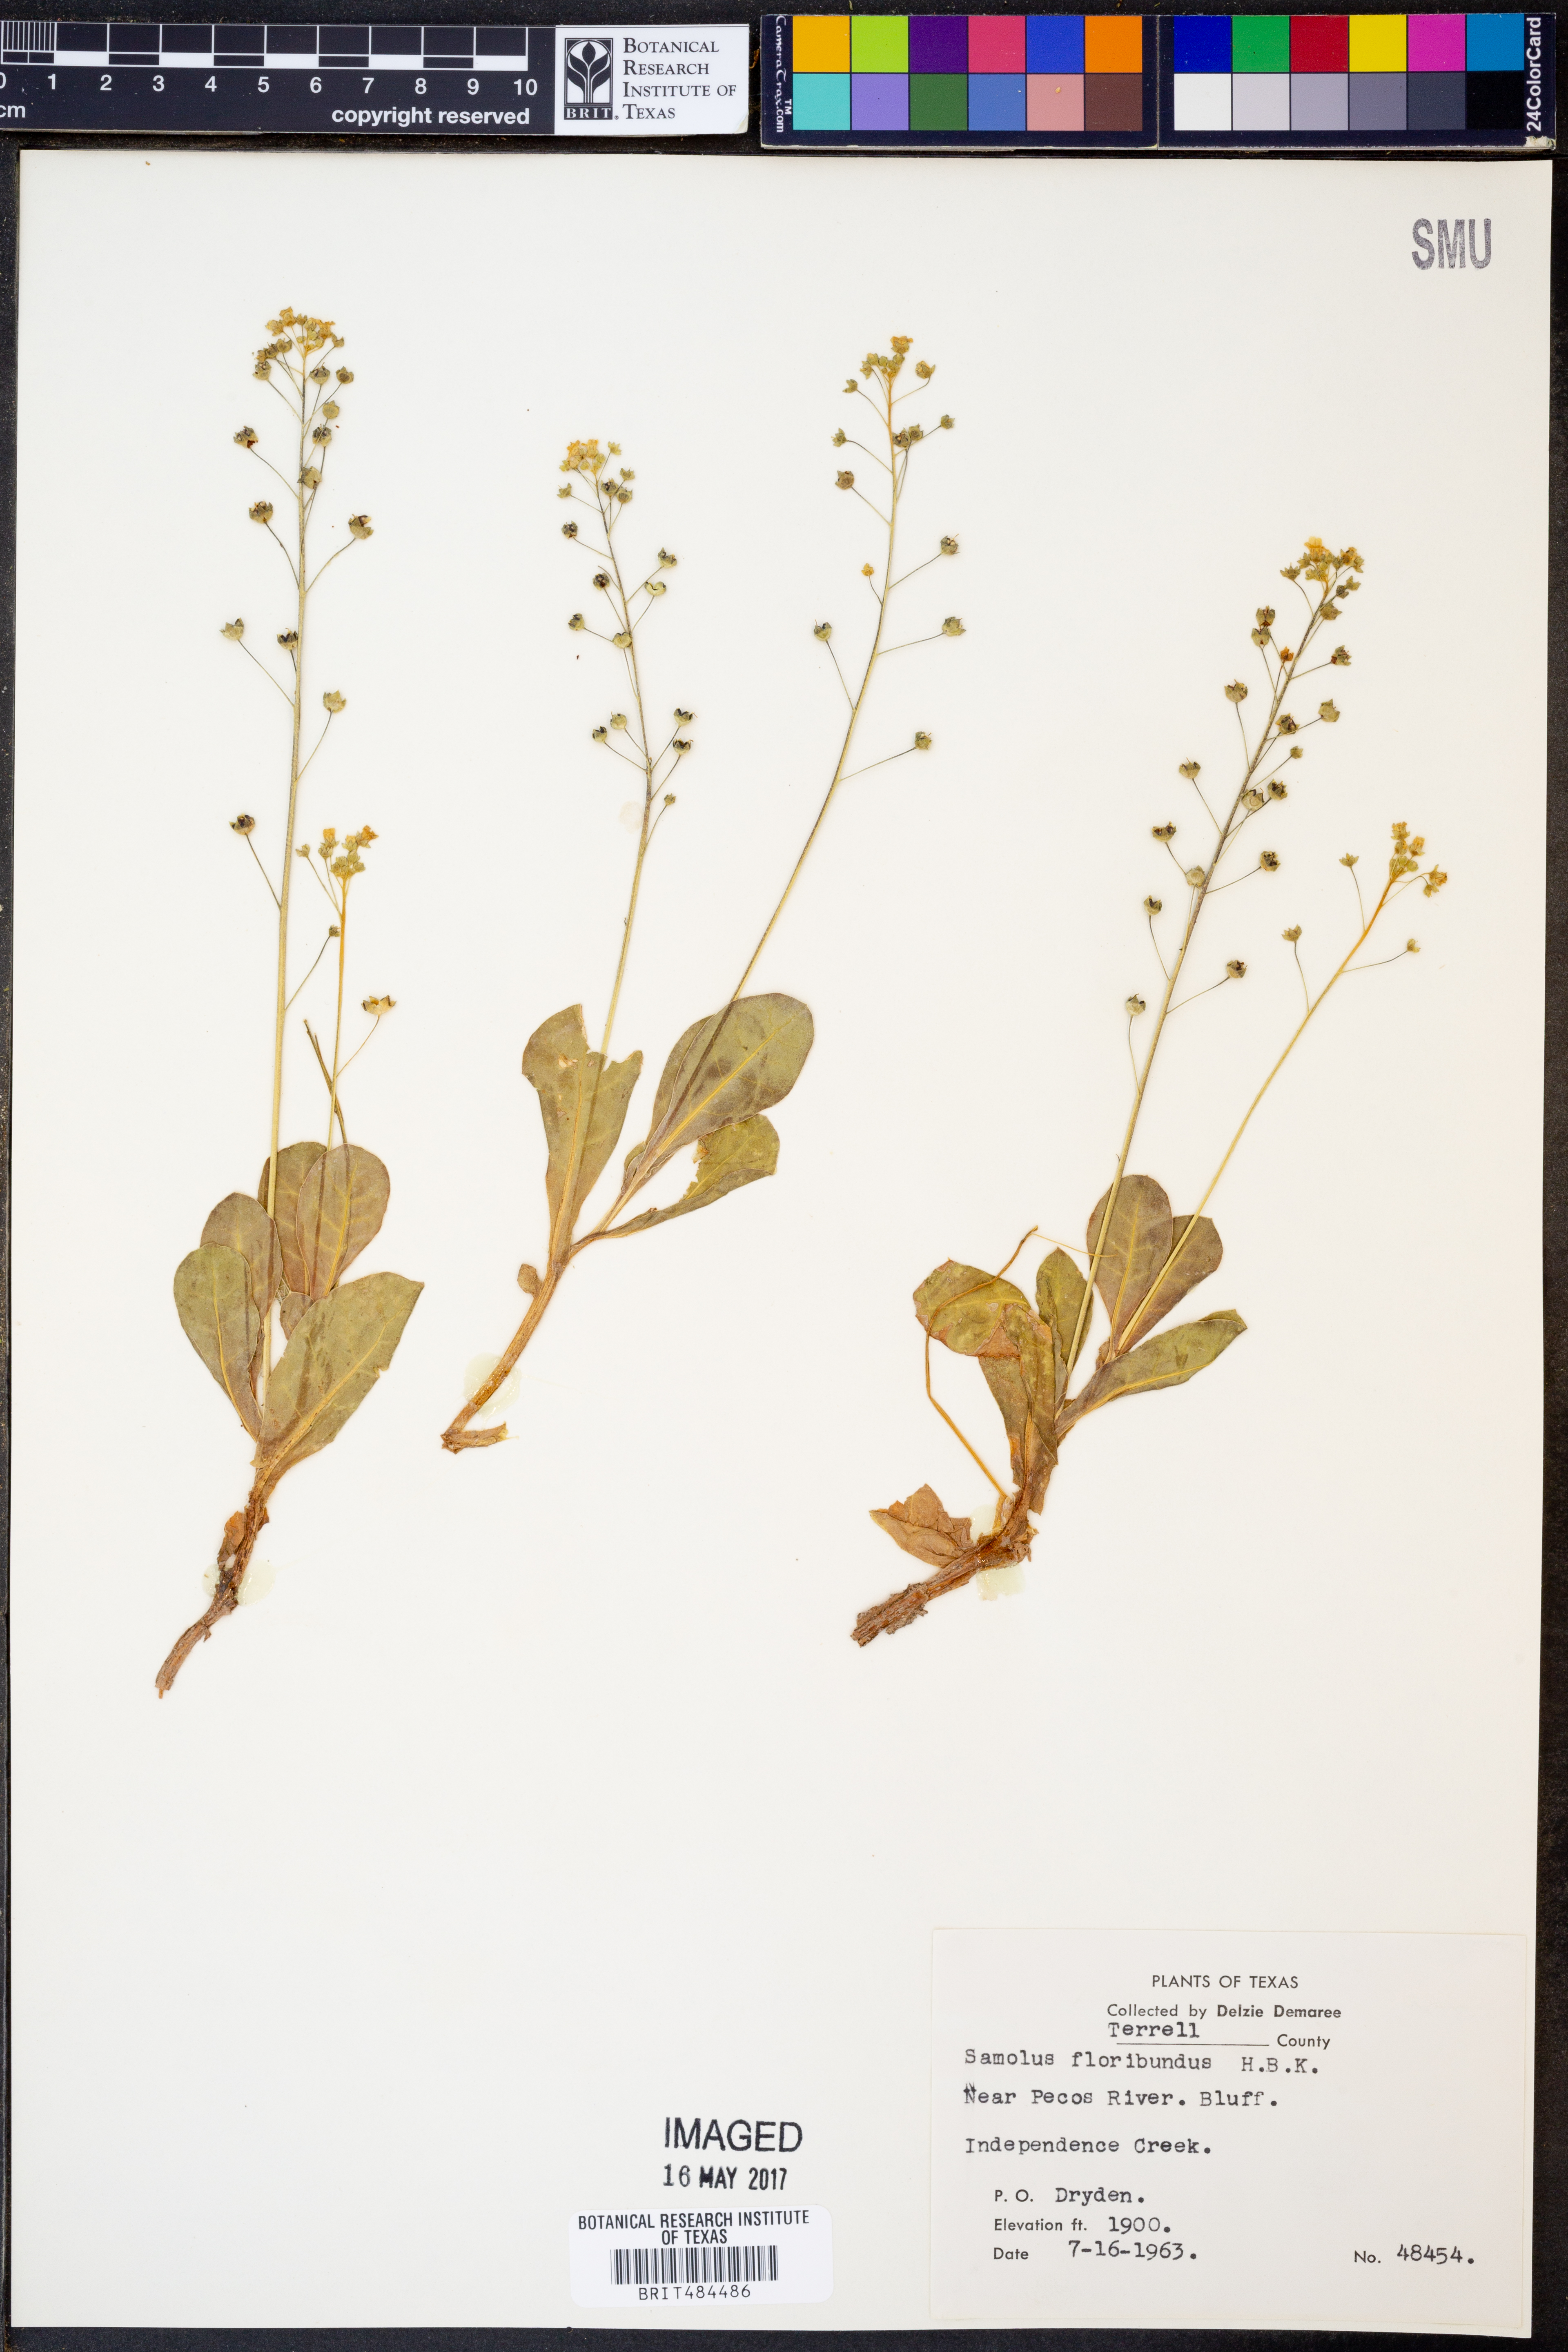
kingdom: Plantae
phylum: Tracheophyta
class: Magnoliopsida
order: Ericales
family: Primulaceae
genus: Samolus
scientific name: Samolus parviflorus
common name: False water pimpernel
